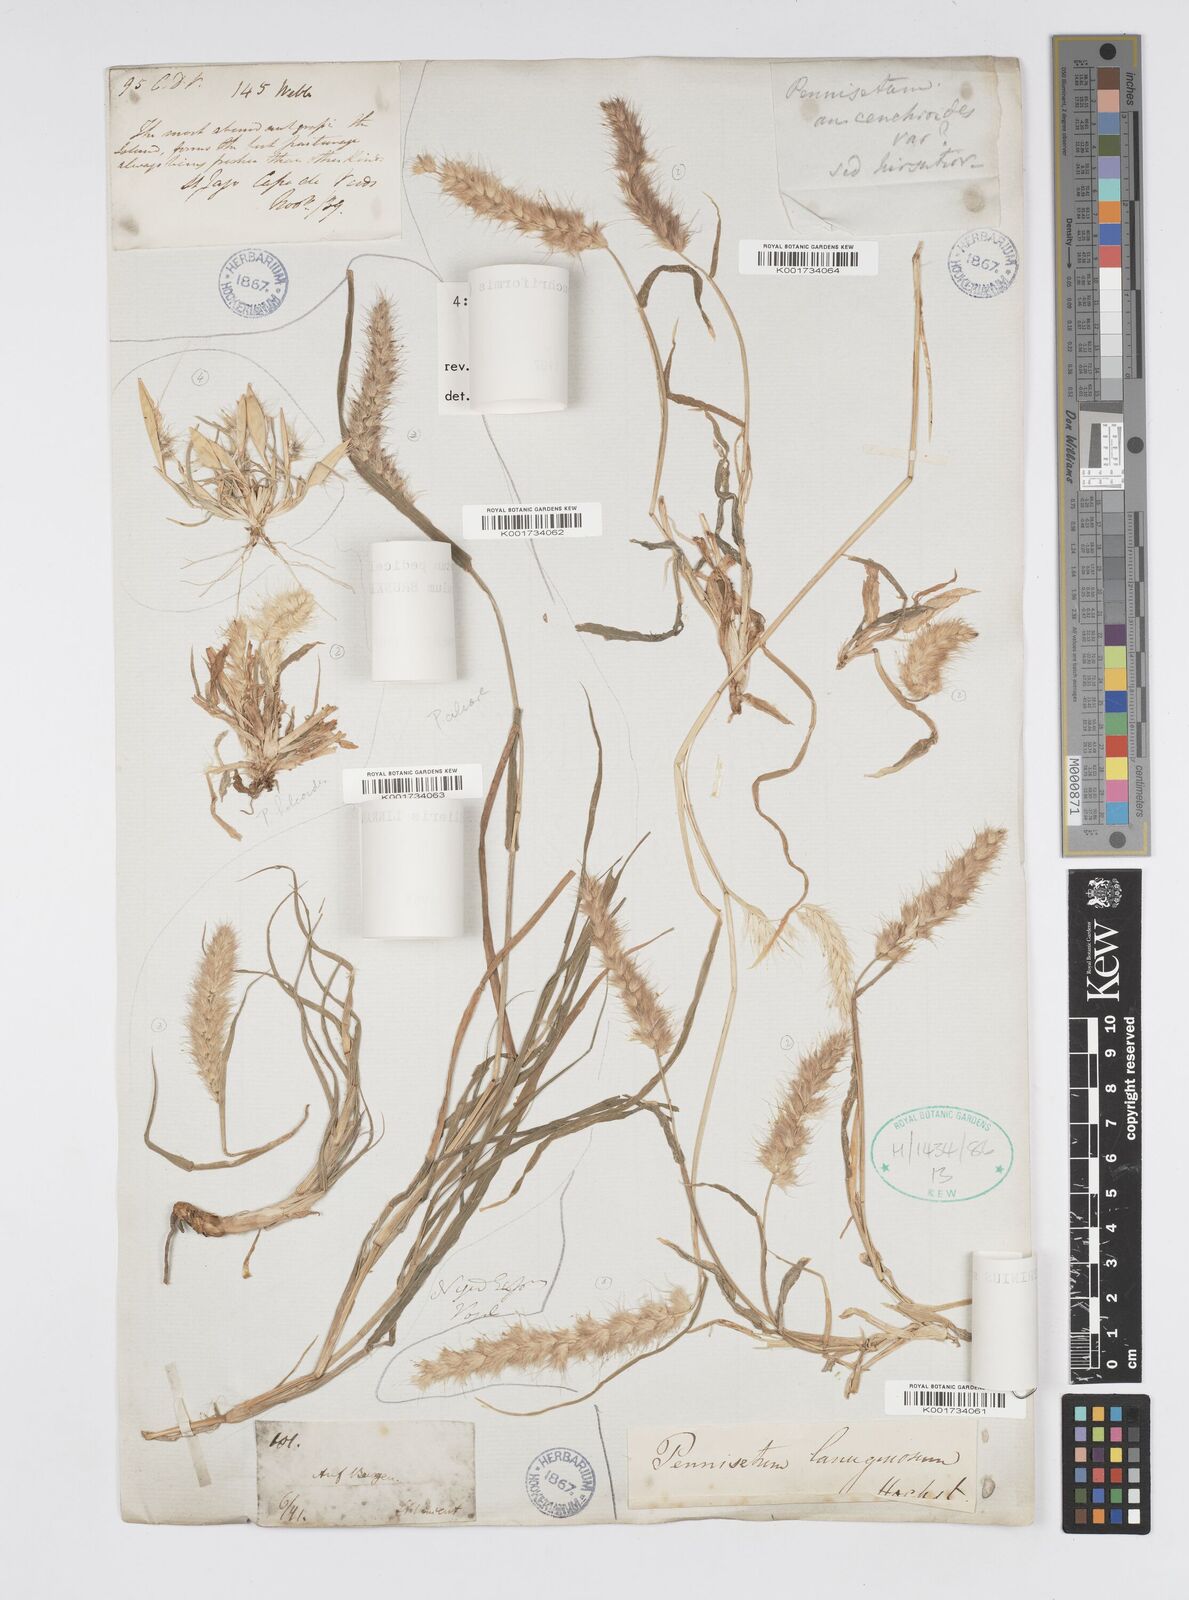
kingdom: Plantae
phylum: Tracheophyta
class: Liliopsida
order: Poales
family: Poaceae
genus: Cenchrus
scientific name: Cenchrus pedicellatus
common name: Hairy fountain grass
